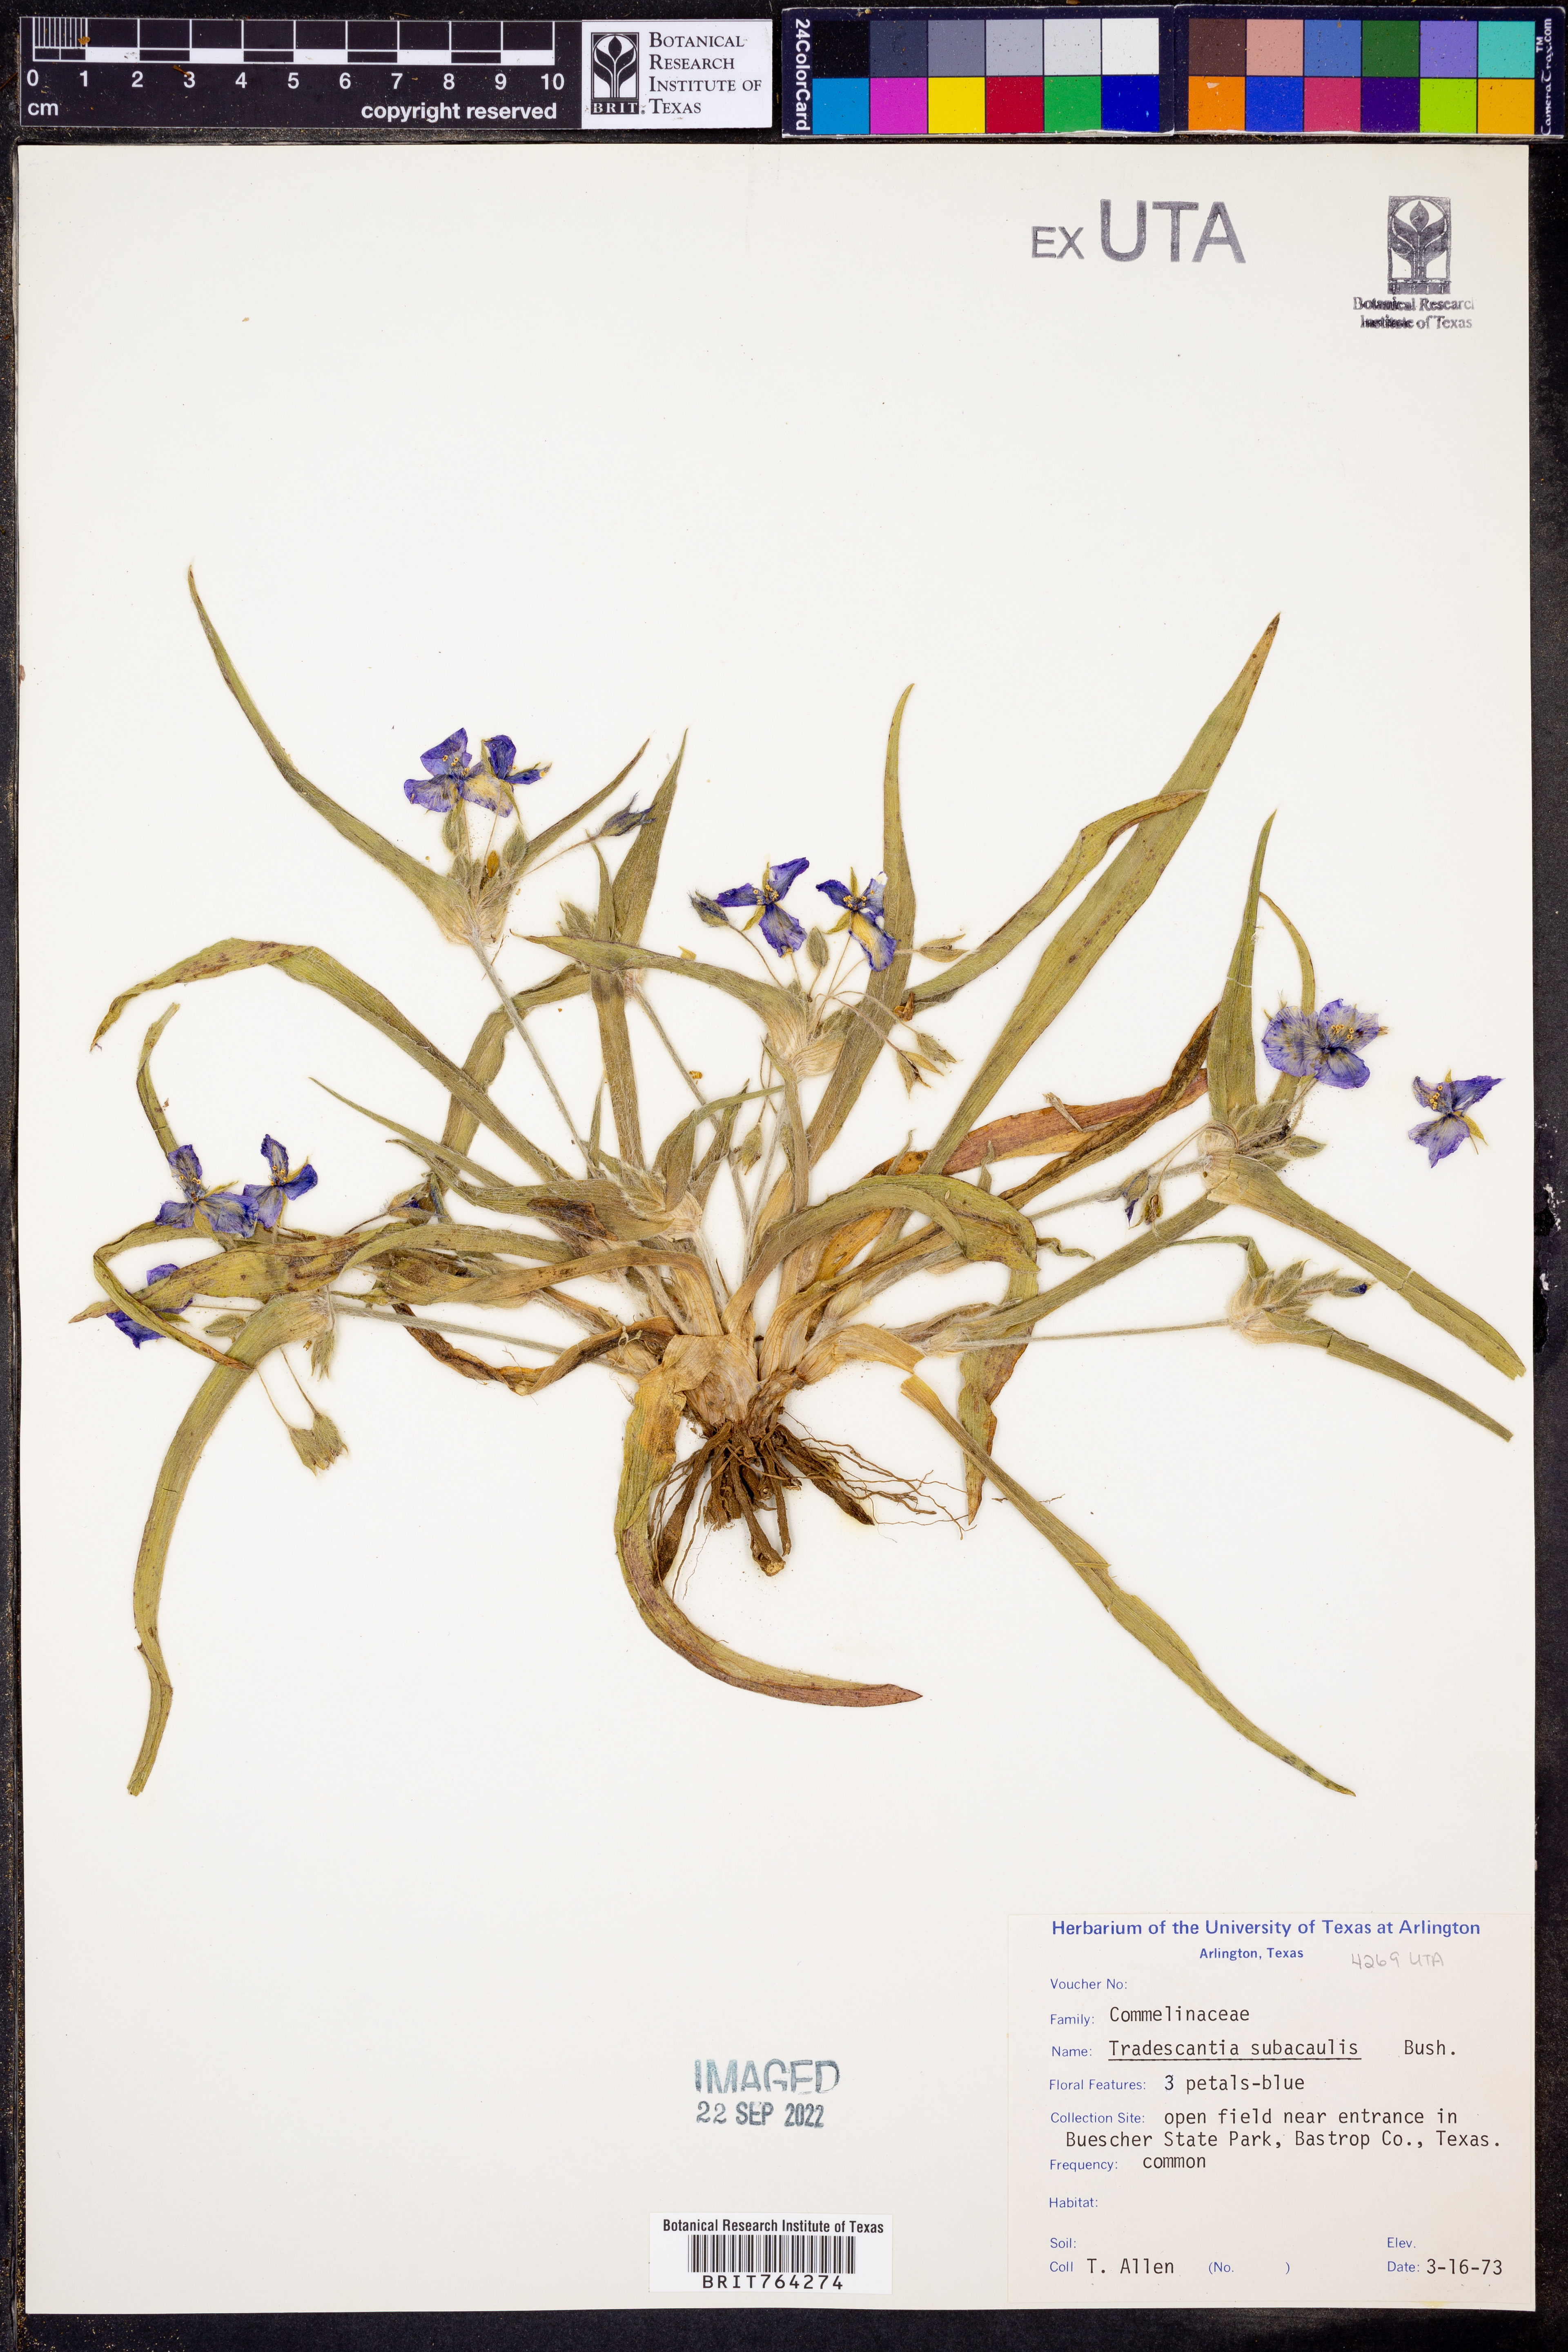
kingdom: Plantae
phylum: Tracheophyta
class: Liliopsida
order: Commelinales
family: Commelinaceae
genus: Tradescantia
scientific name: Tradescantia subacaulis
